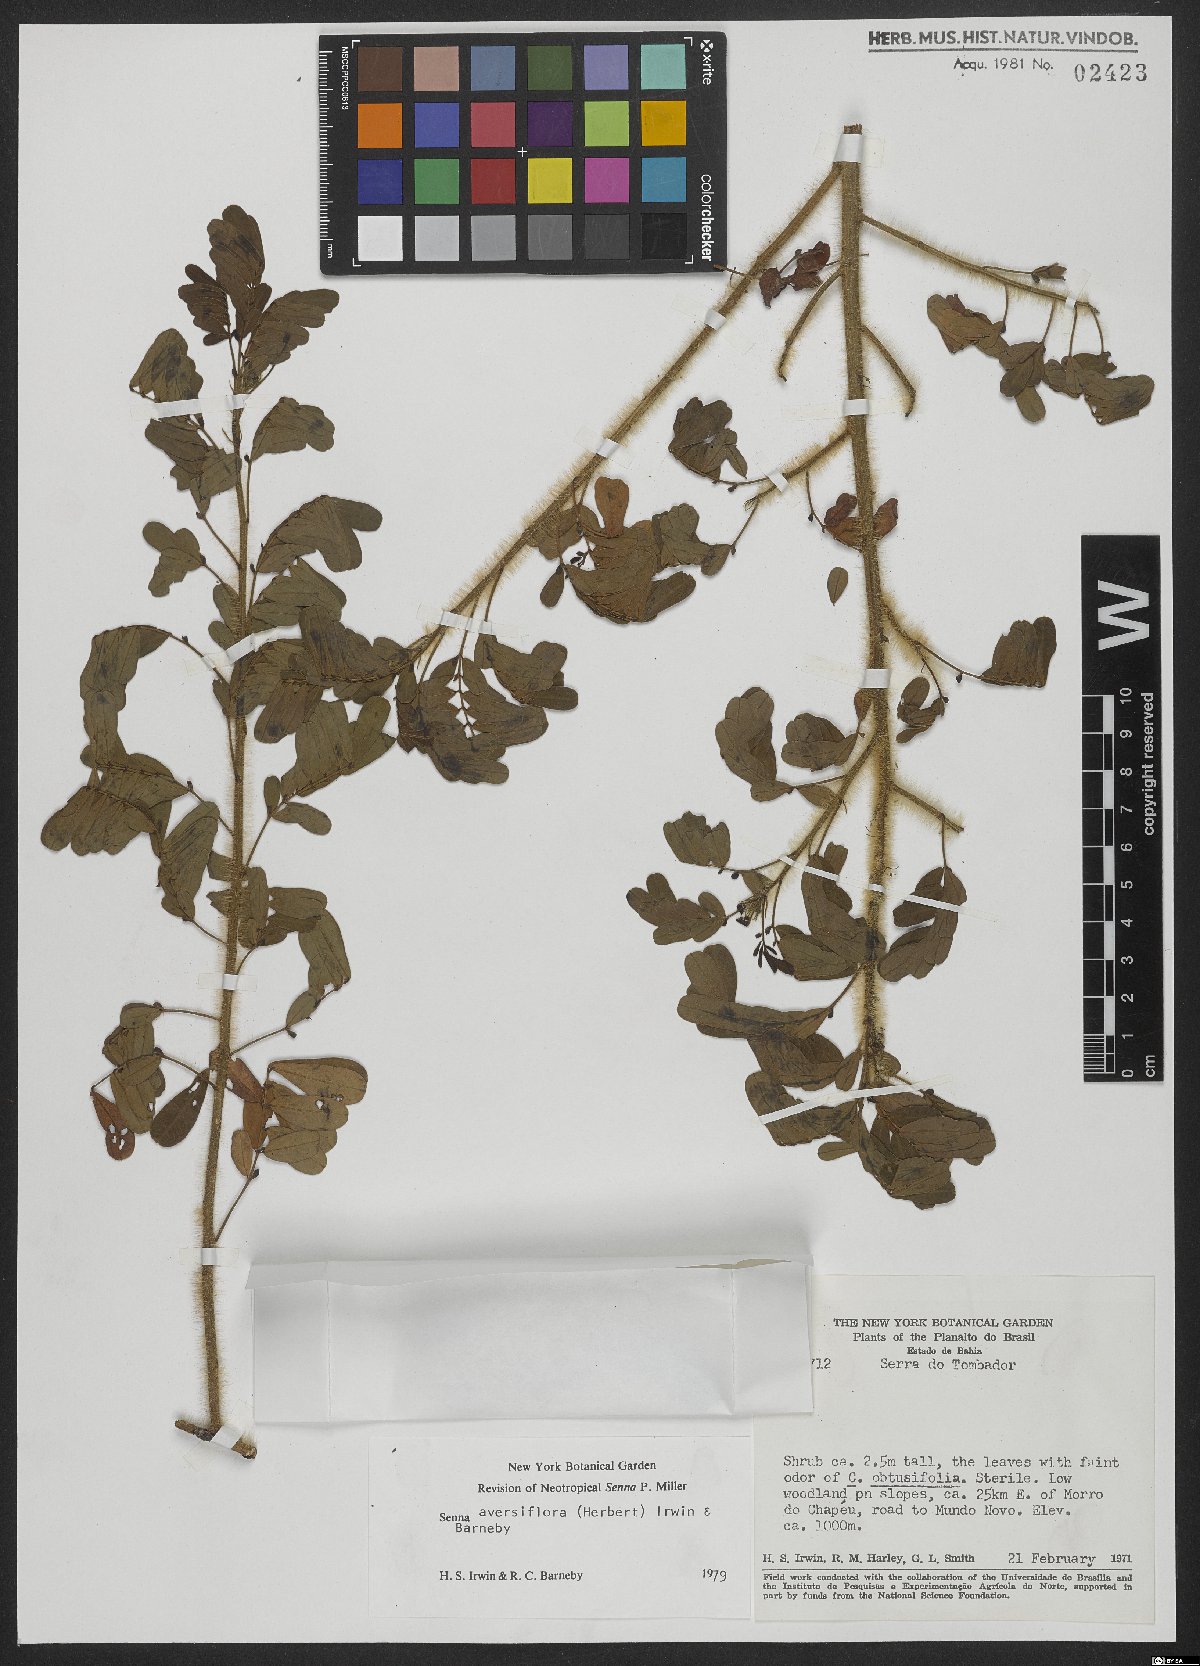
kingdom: Plantae
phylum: Tracheophyta
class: Magnoliopsida
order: Fabales
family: Fabaceae
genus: Senna
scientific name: Senna aversiflora
